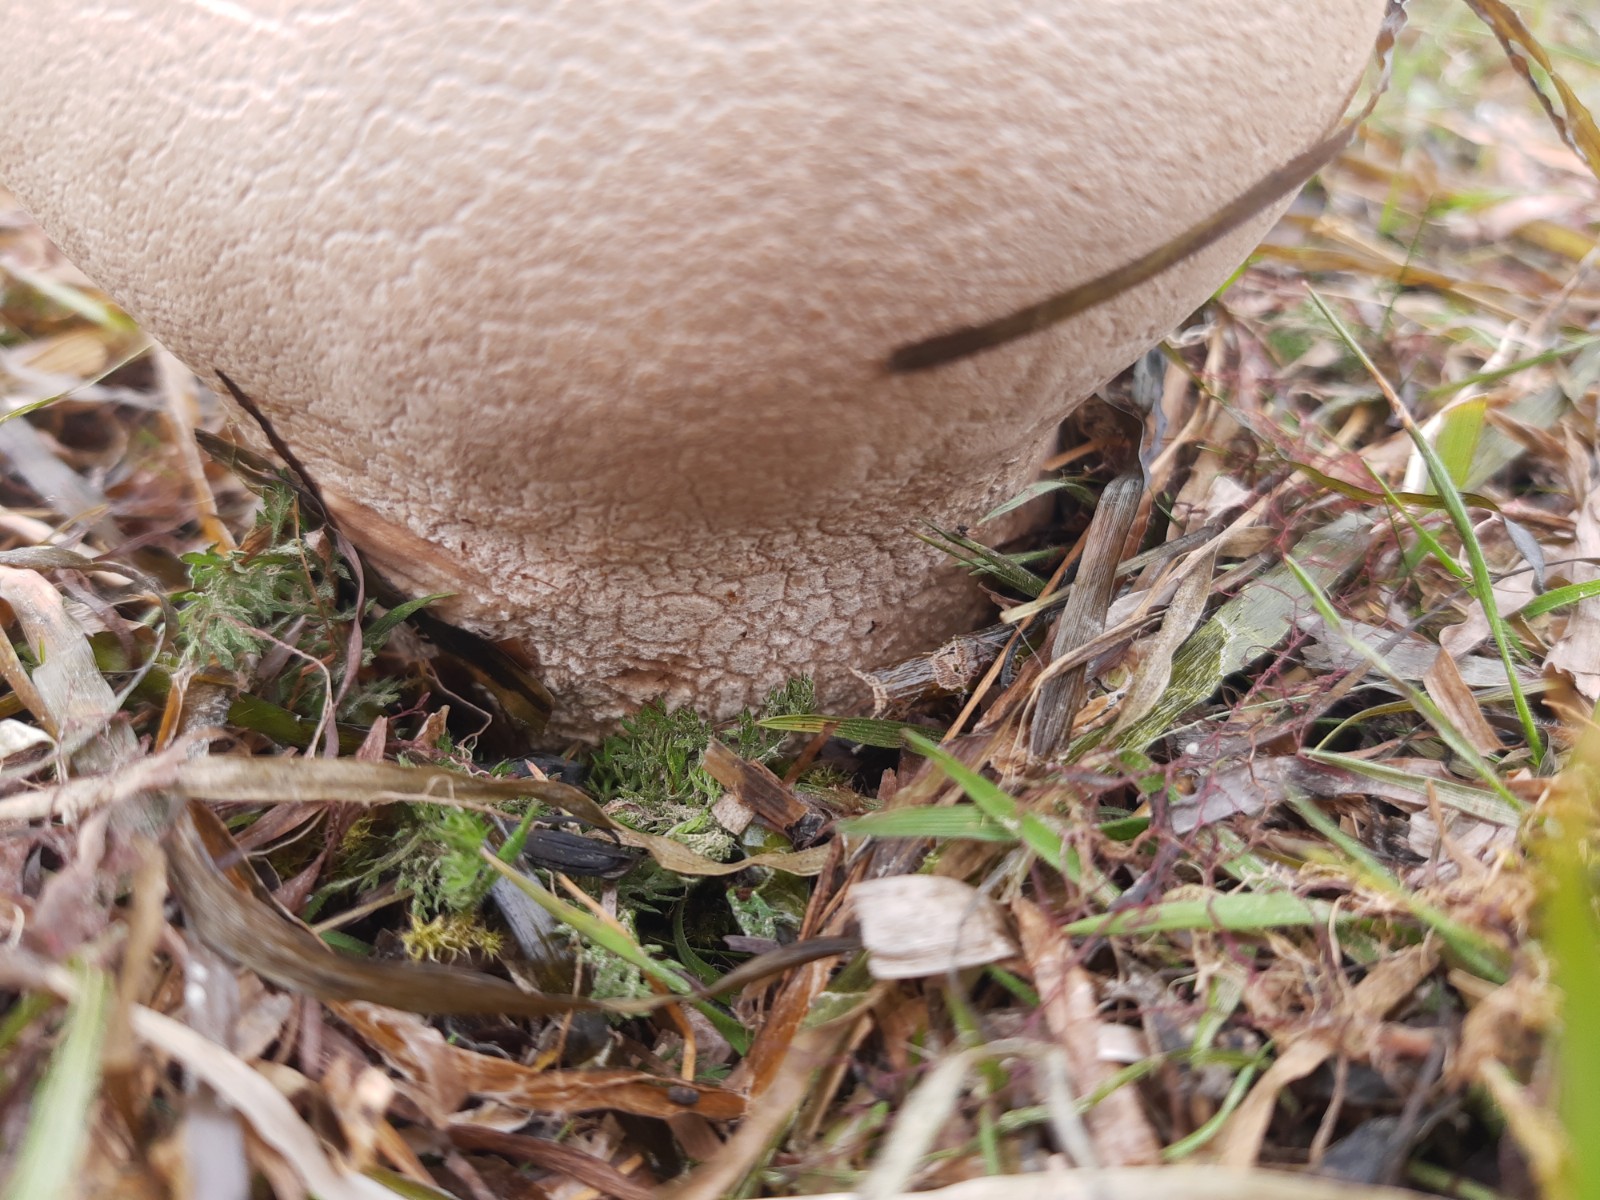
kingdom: Fungi
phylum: Basidiomycota
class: Agaricomycetes
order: Agaricales
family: Lycoperdaceae
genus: Bovistella
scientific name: Bovistella utriformis
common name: skællet støvbold
